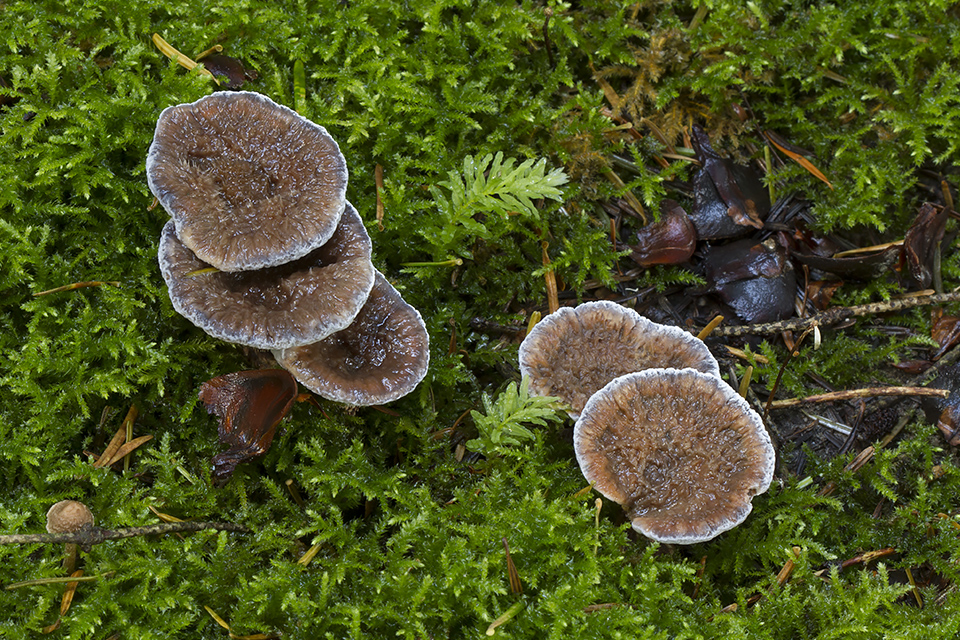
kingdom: Fungi
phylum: Basidiomycota
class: Agaricomycetes
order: Thelephorales
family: Bankeraceae
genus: Hydnellum
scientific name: Hydnellum caeruleum
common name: blålig korkpigsvamp
